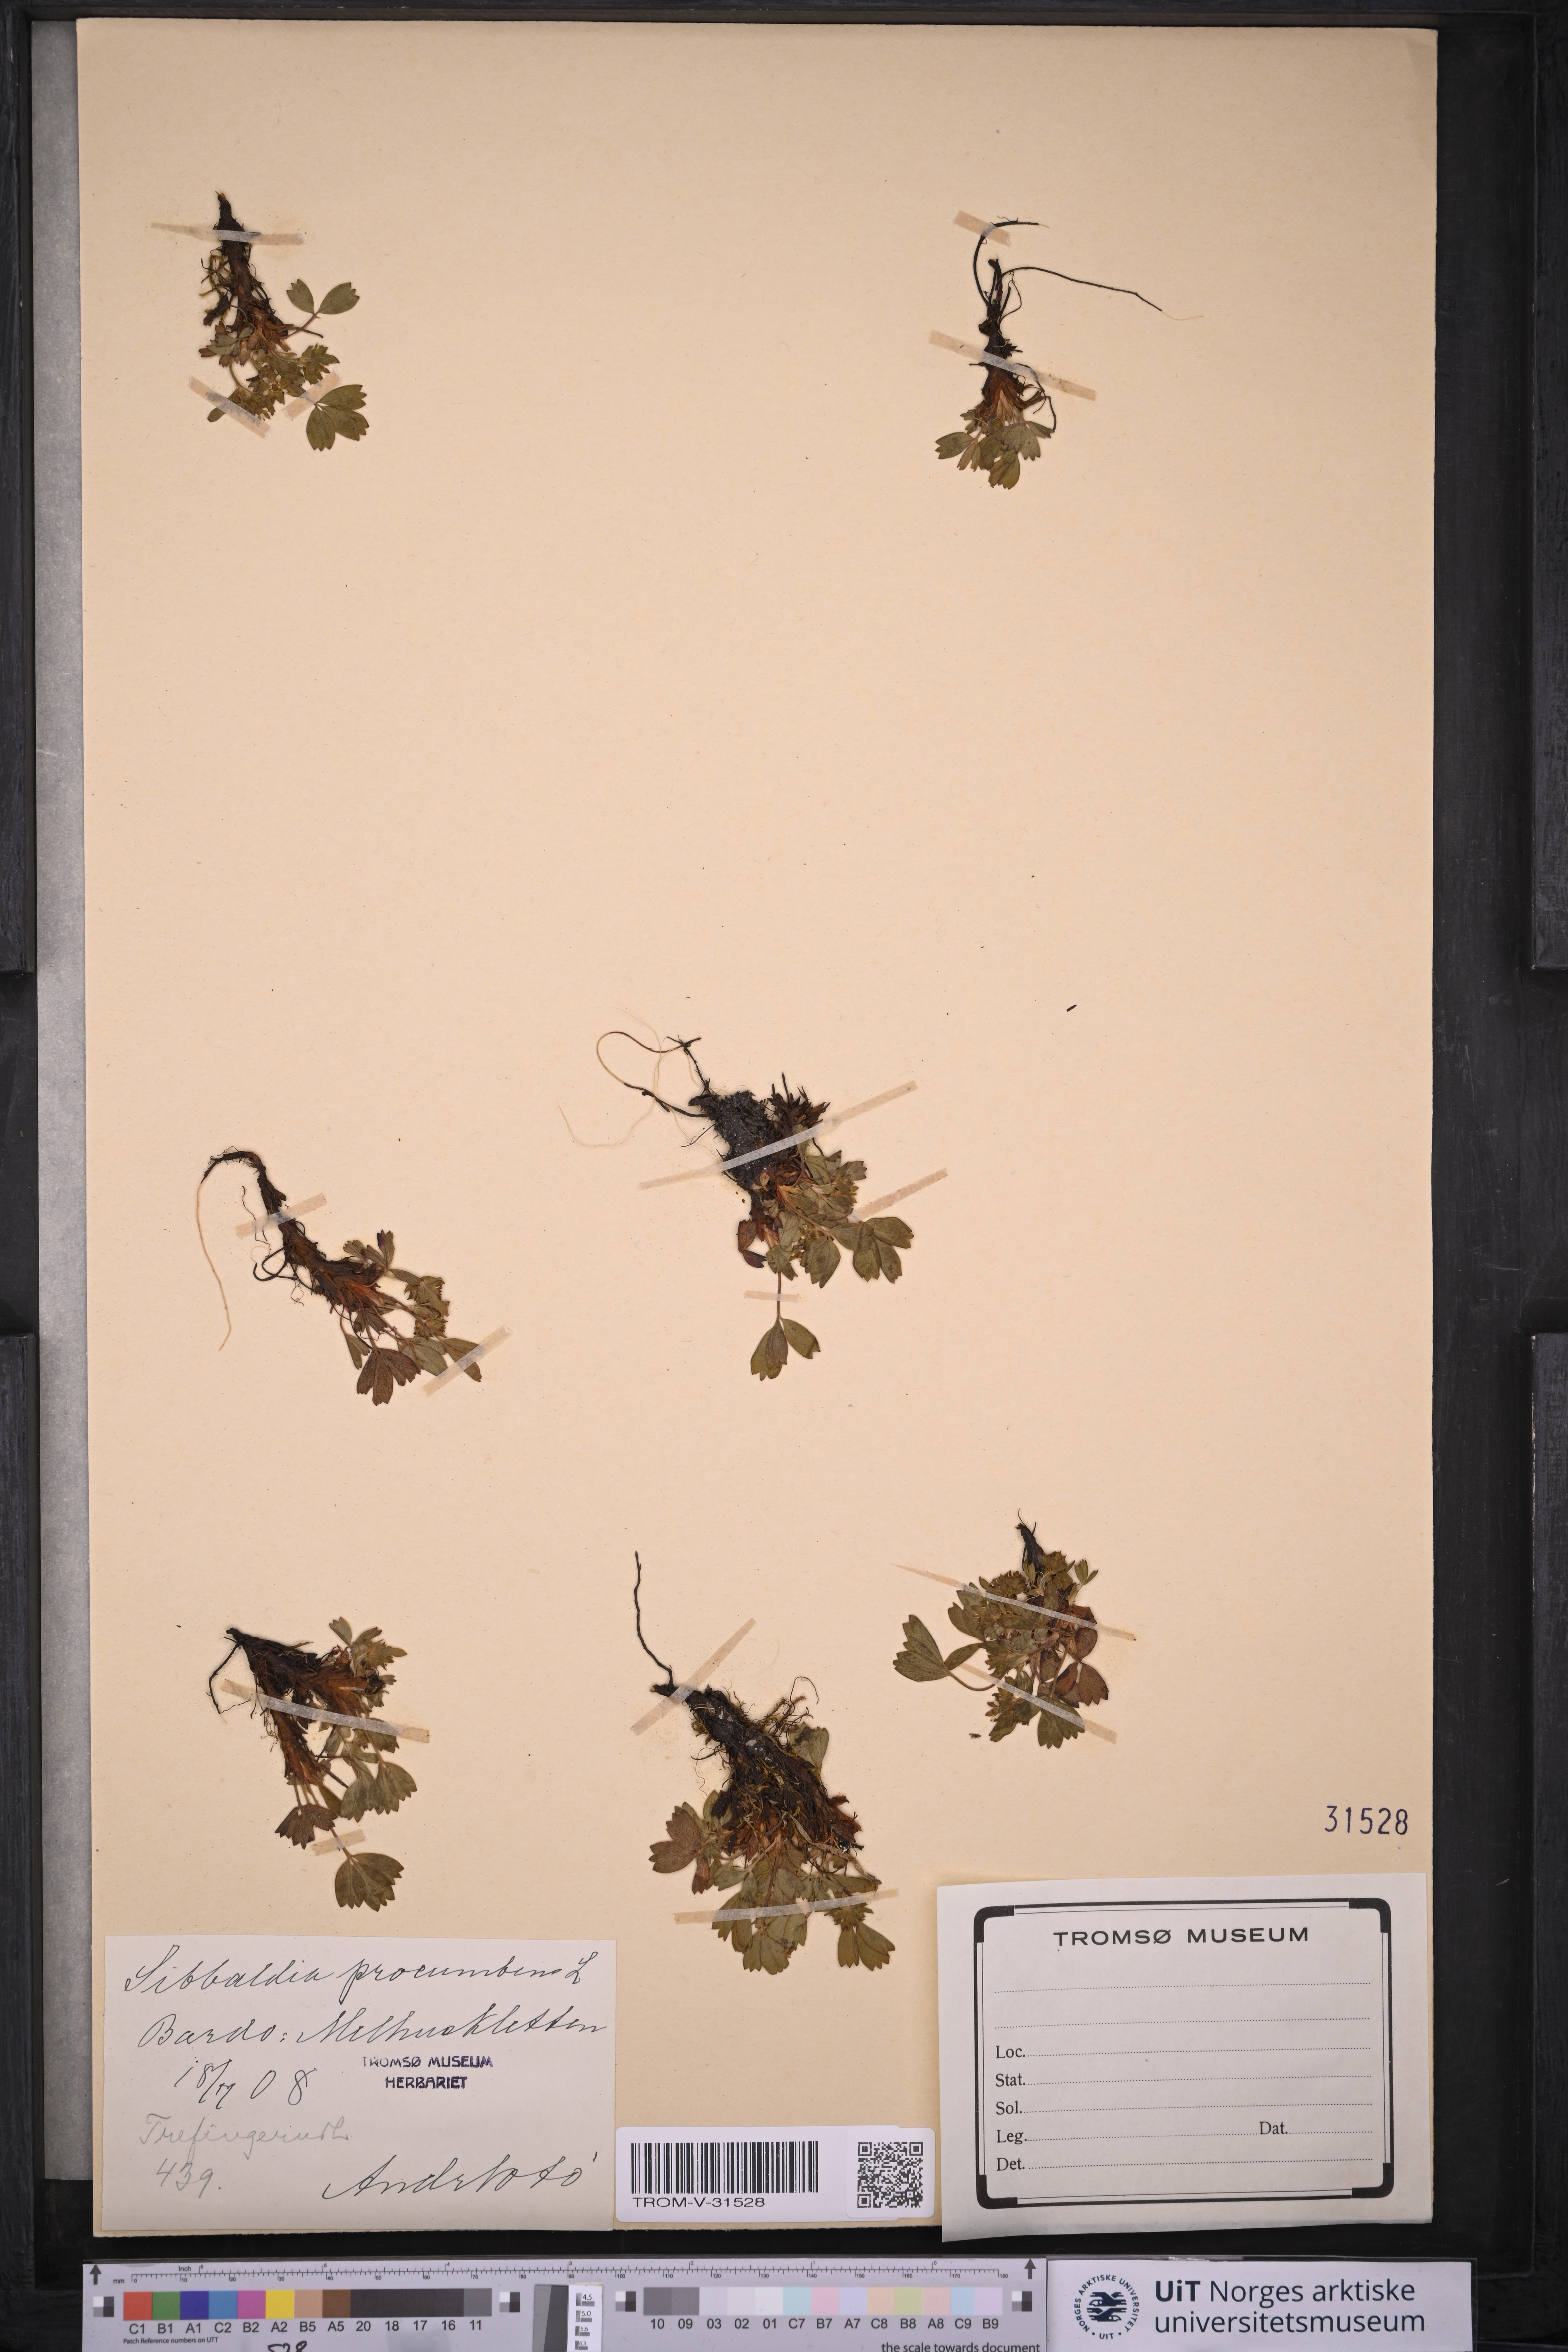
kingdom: Plantae
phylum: Tracheophyta
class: Magnoliopsida
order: Rosales
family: Rosaceae
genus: Sibbaldia
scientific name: Sibbaldia procumbens
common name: Creeping sibbaldia
